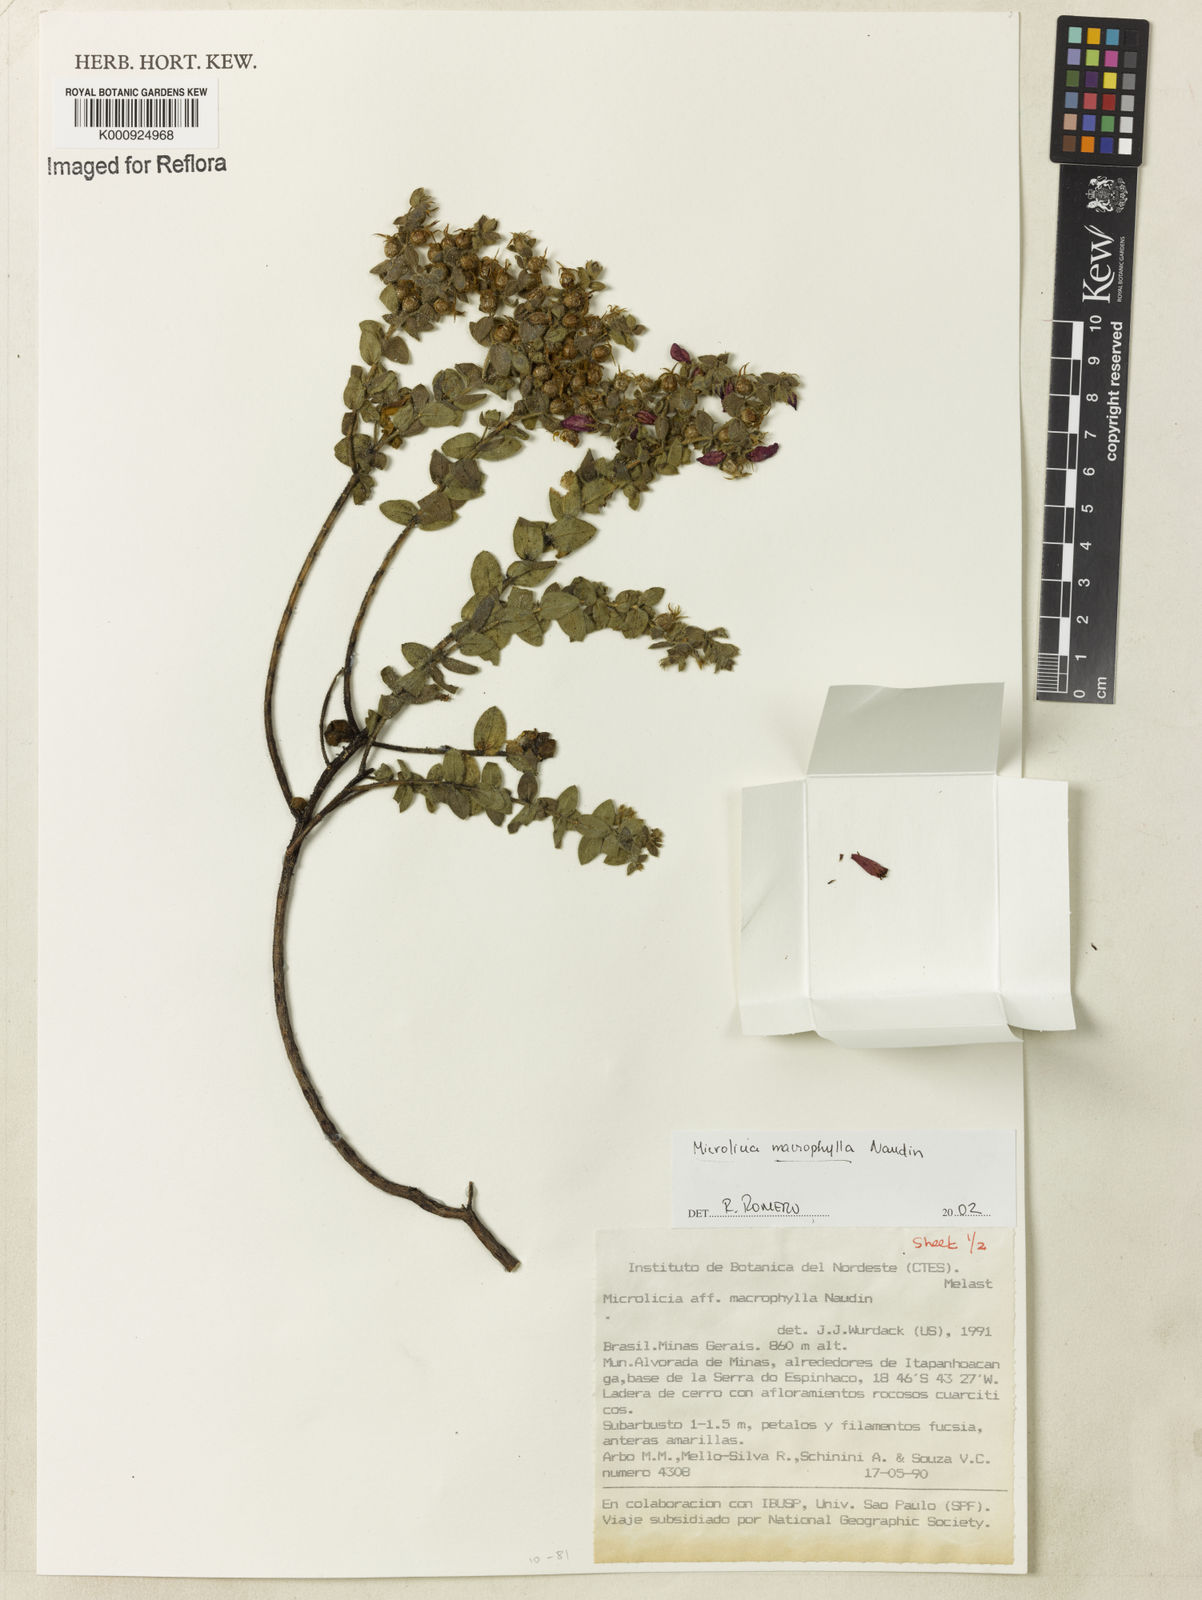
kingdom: Plantae
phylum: Tracheophyta
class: Magnoliopsida
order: Myrtales
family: Melastomataceae
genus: Microlicia
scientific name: Microlicia macrophylla
